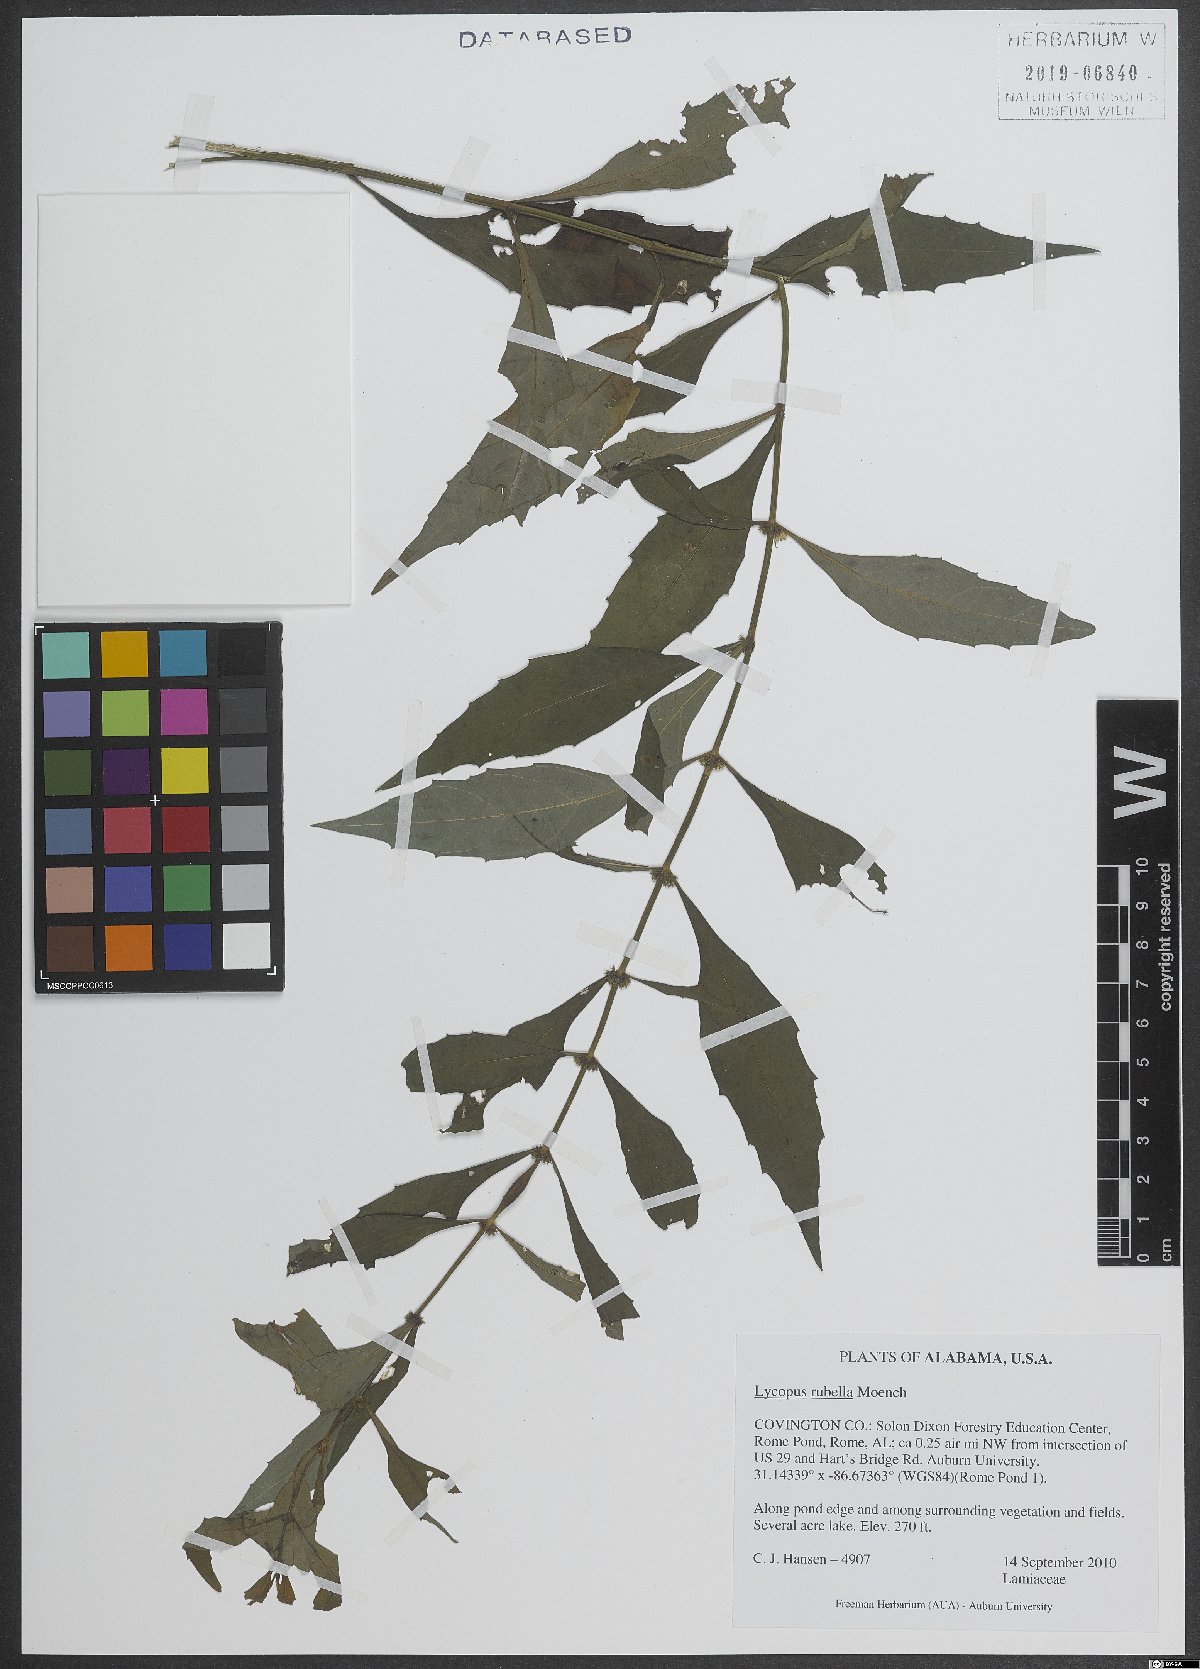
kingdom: Plantae
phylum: Tracheophyta
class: Magnoliopsida
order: Lamiales
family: Lamiaceae
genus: Lycopus
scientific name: Lycopus rubellus
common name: Stalked bugleweed
